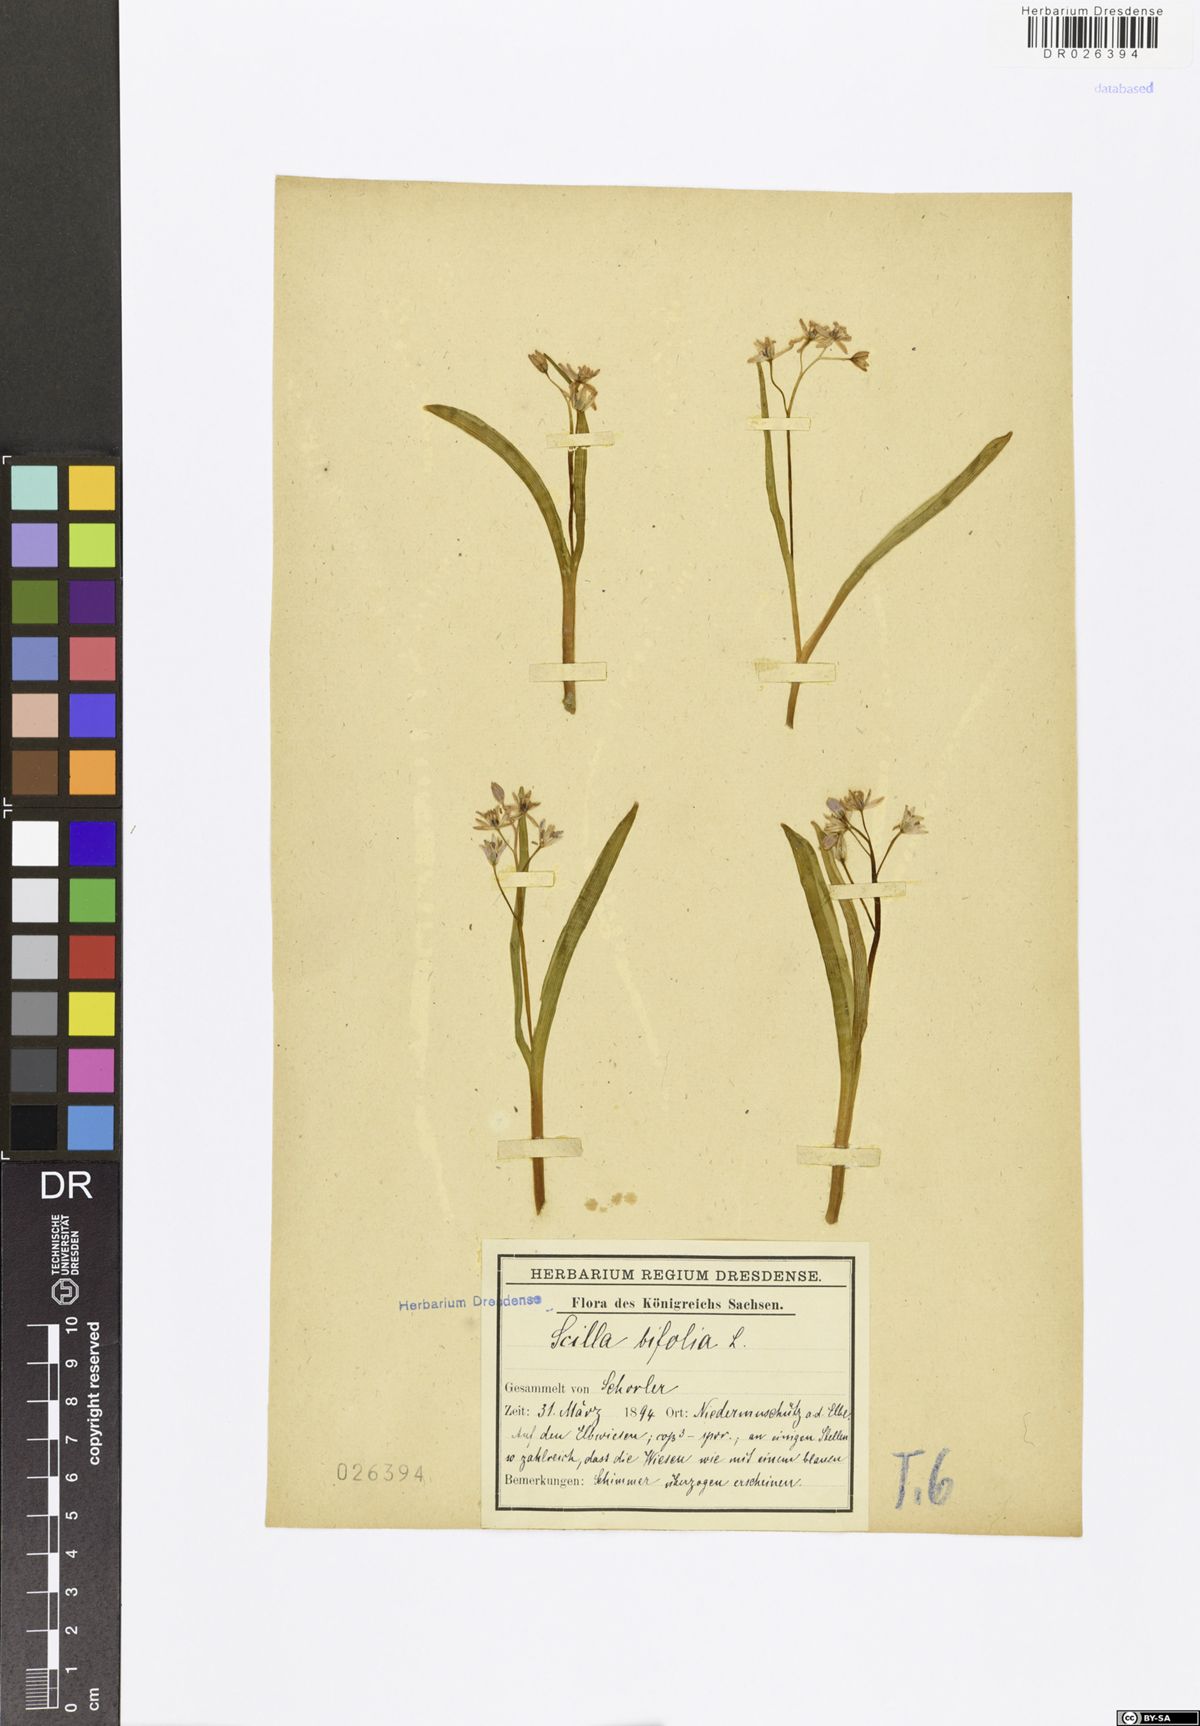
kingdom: Plantae
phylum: Tracheophyta
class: Liliopsida
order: Asparagales
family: Asparagaceae
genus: Scilla
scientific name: Scilla vindobonensis
